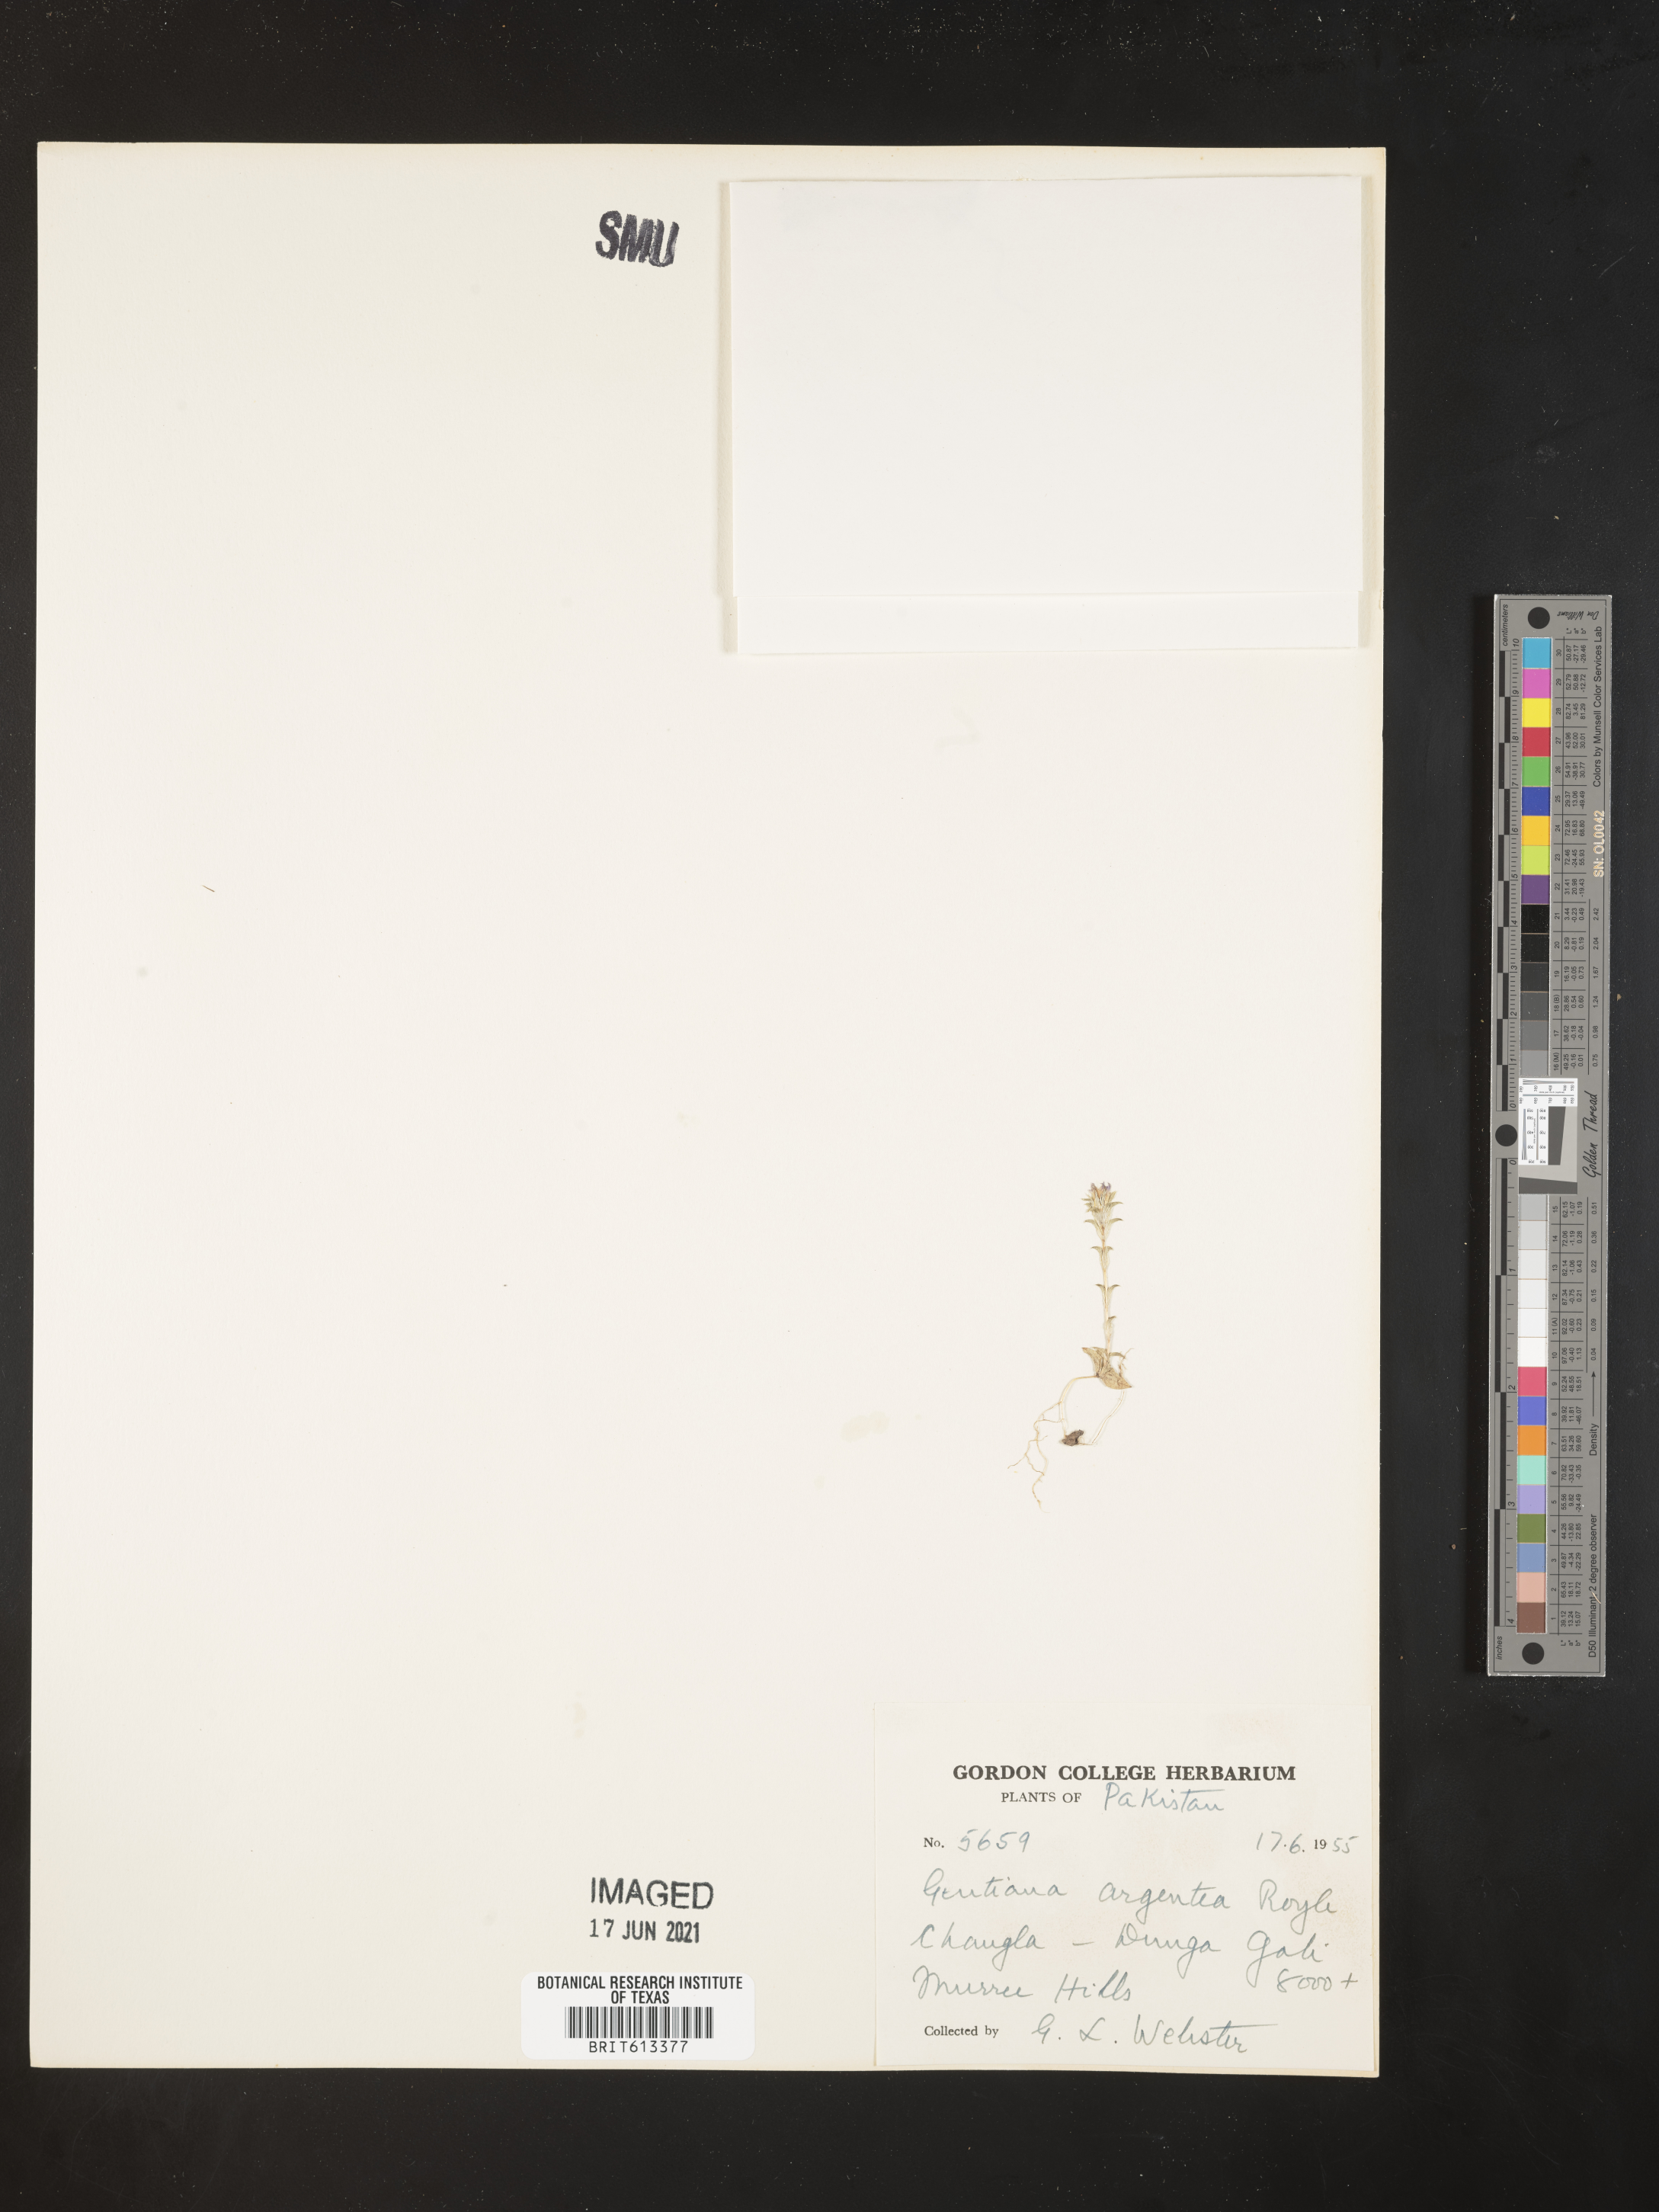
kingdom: Plantae
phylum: Tracheophyta
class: Magnoliopsida
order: Gentianales
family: Gentianaceae
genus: Gentiana
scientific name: Gentiana argentea
